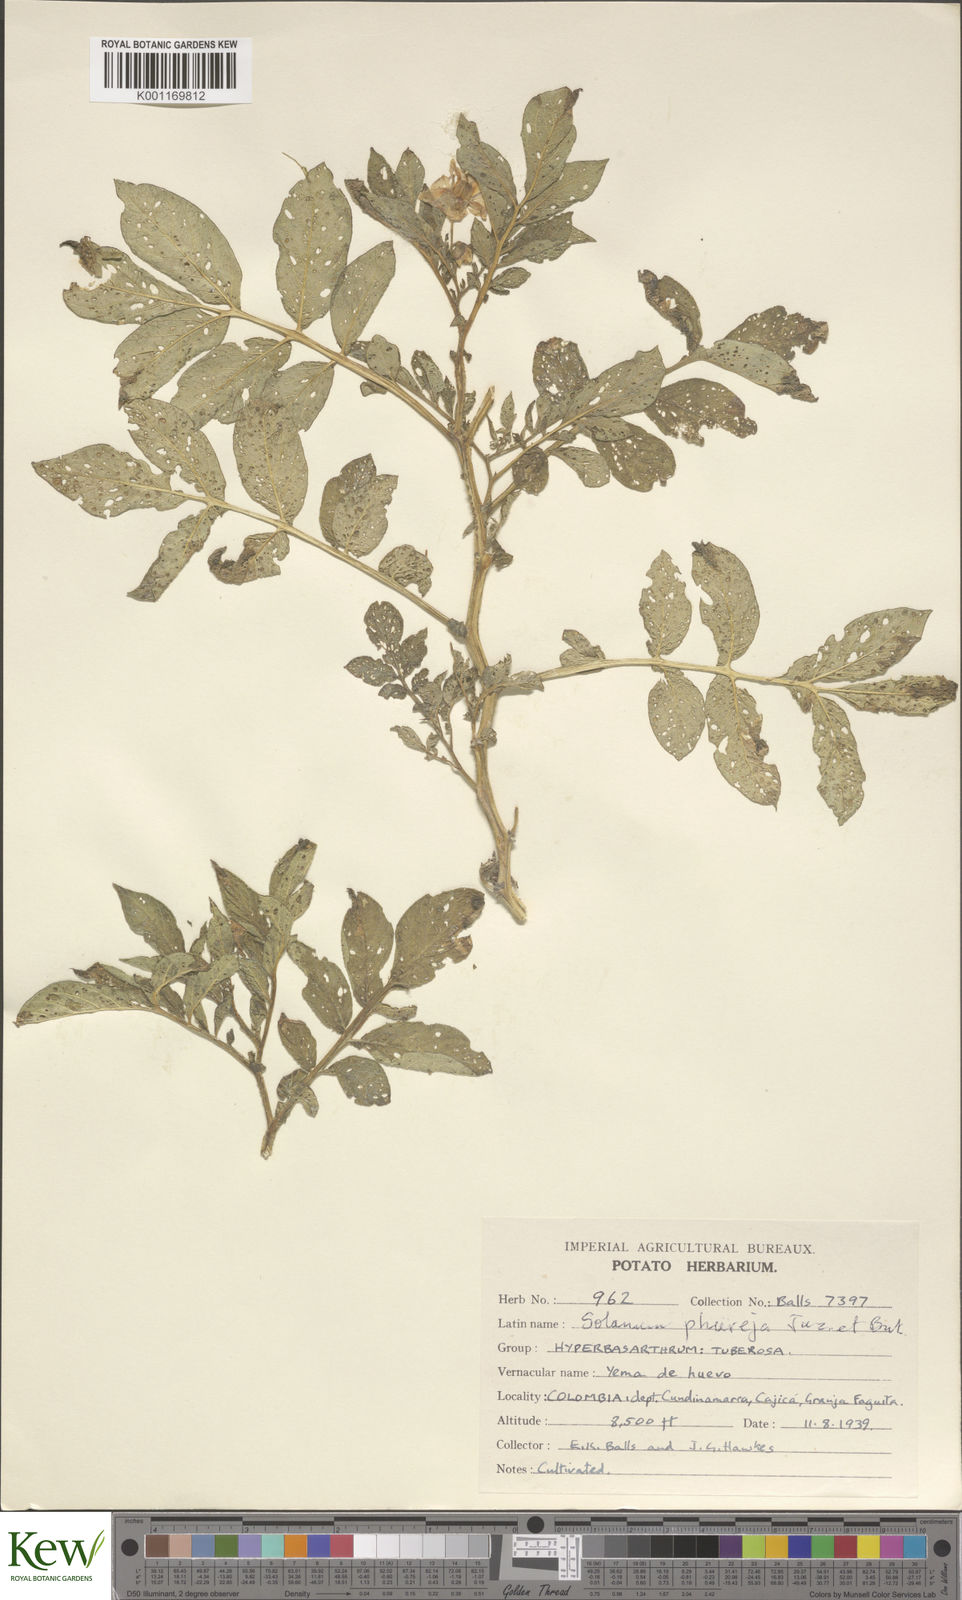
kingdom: Plantae
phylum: Tracheophyta
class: Magnoliopsida
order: Solanales
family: Solanaceae
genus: Solanum
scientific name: Solanum tuberosum
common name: Potato
